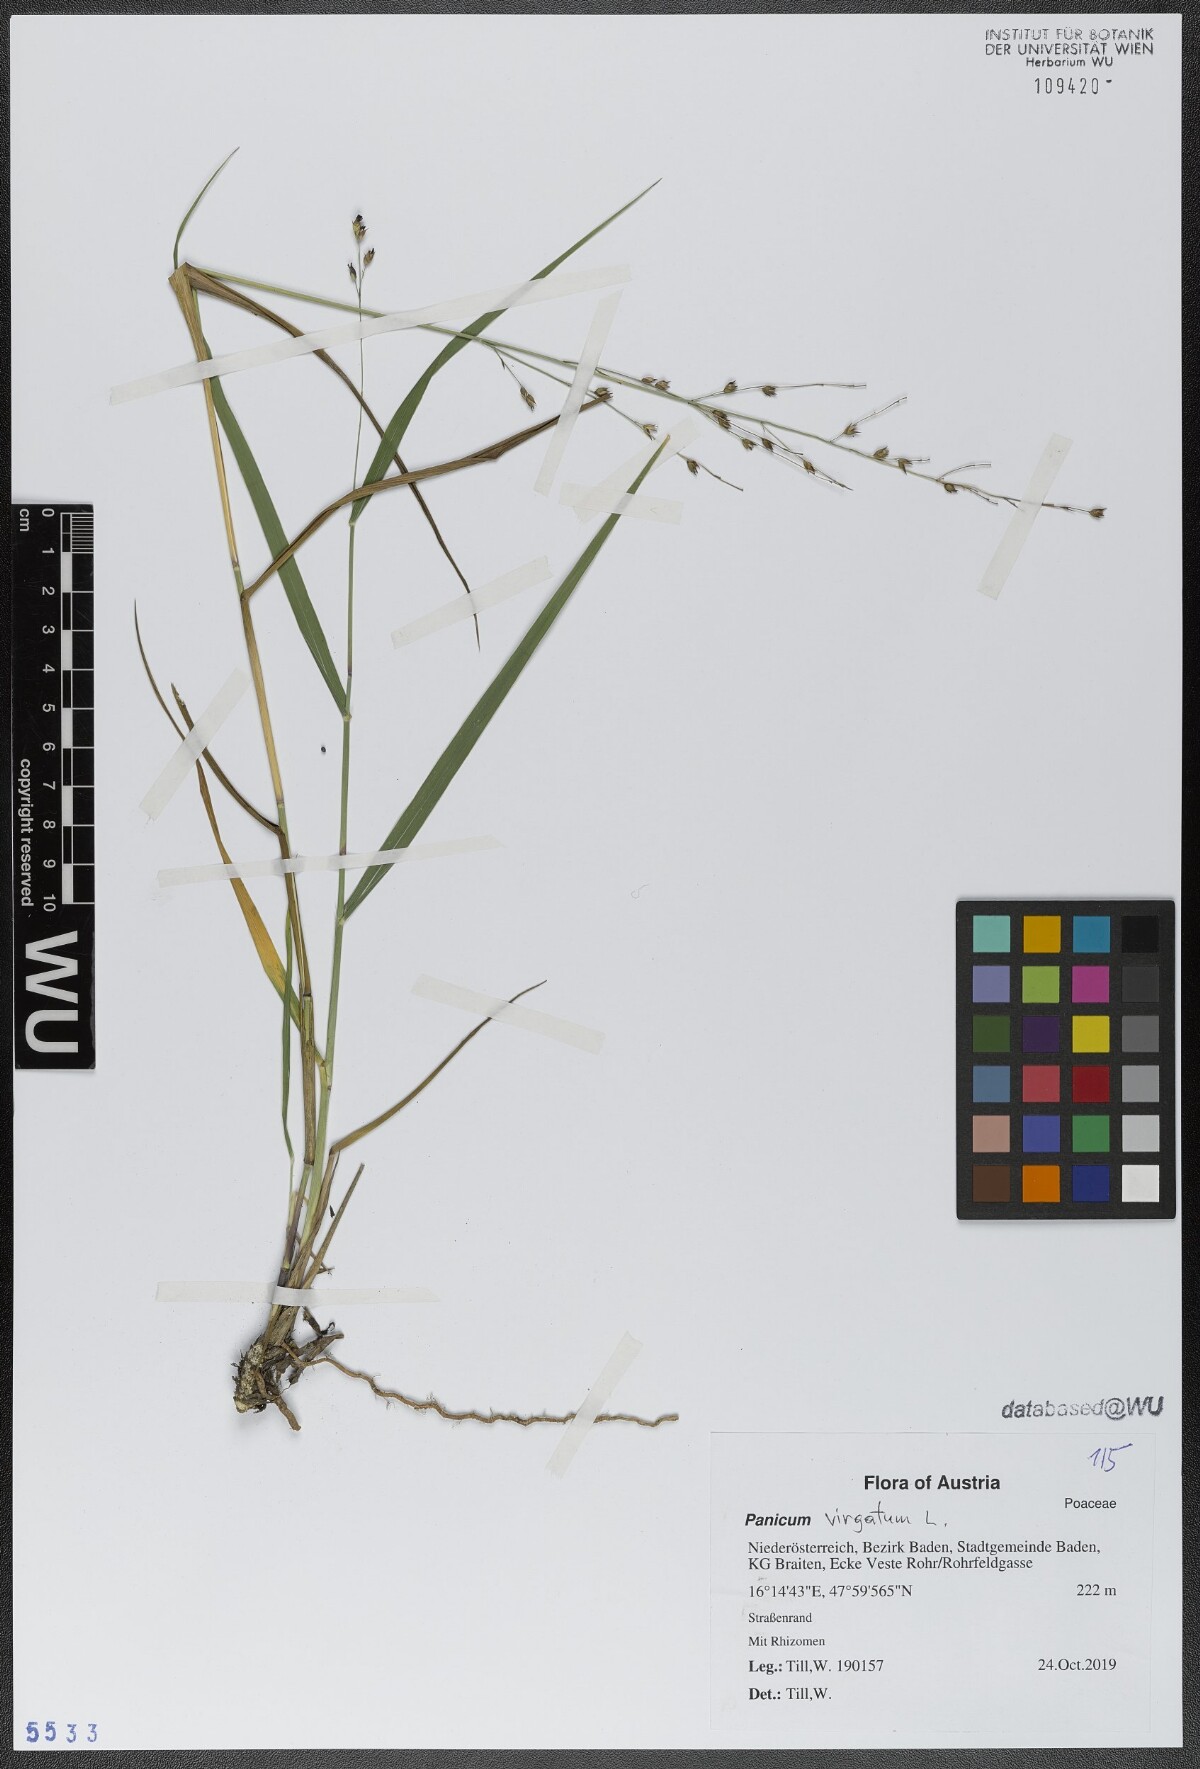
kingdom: Plantae
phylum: Tracheophyta
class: Liliopsida
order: Poales
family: Poaceae
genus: Panicum
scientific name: Panicum virgatum
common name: Switchgrass
